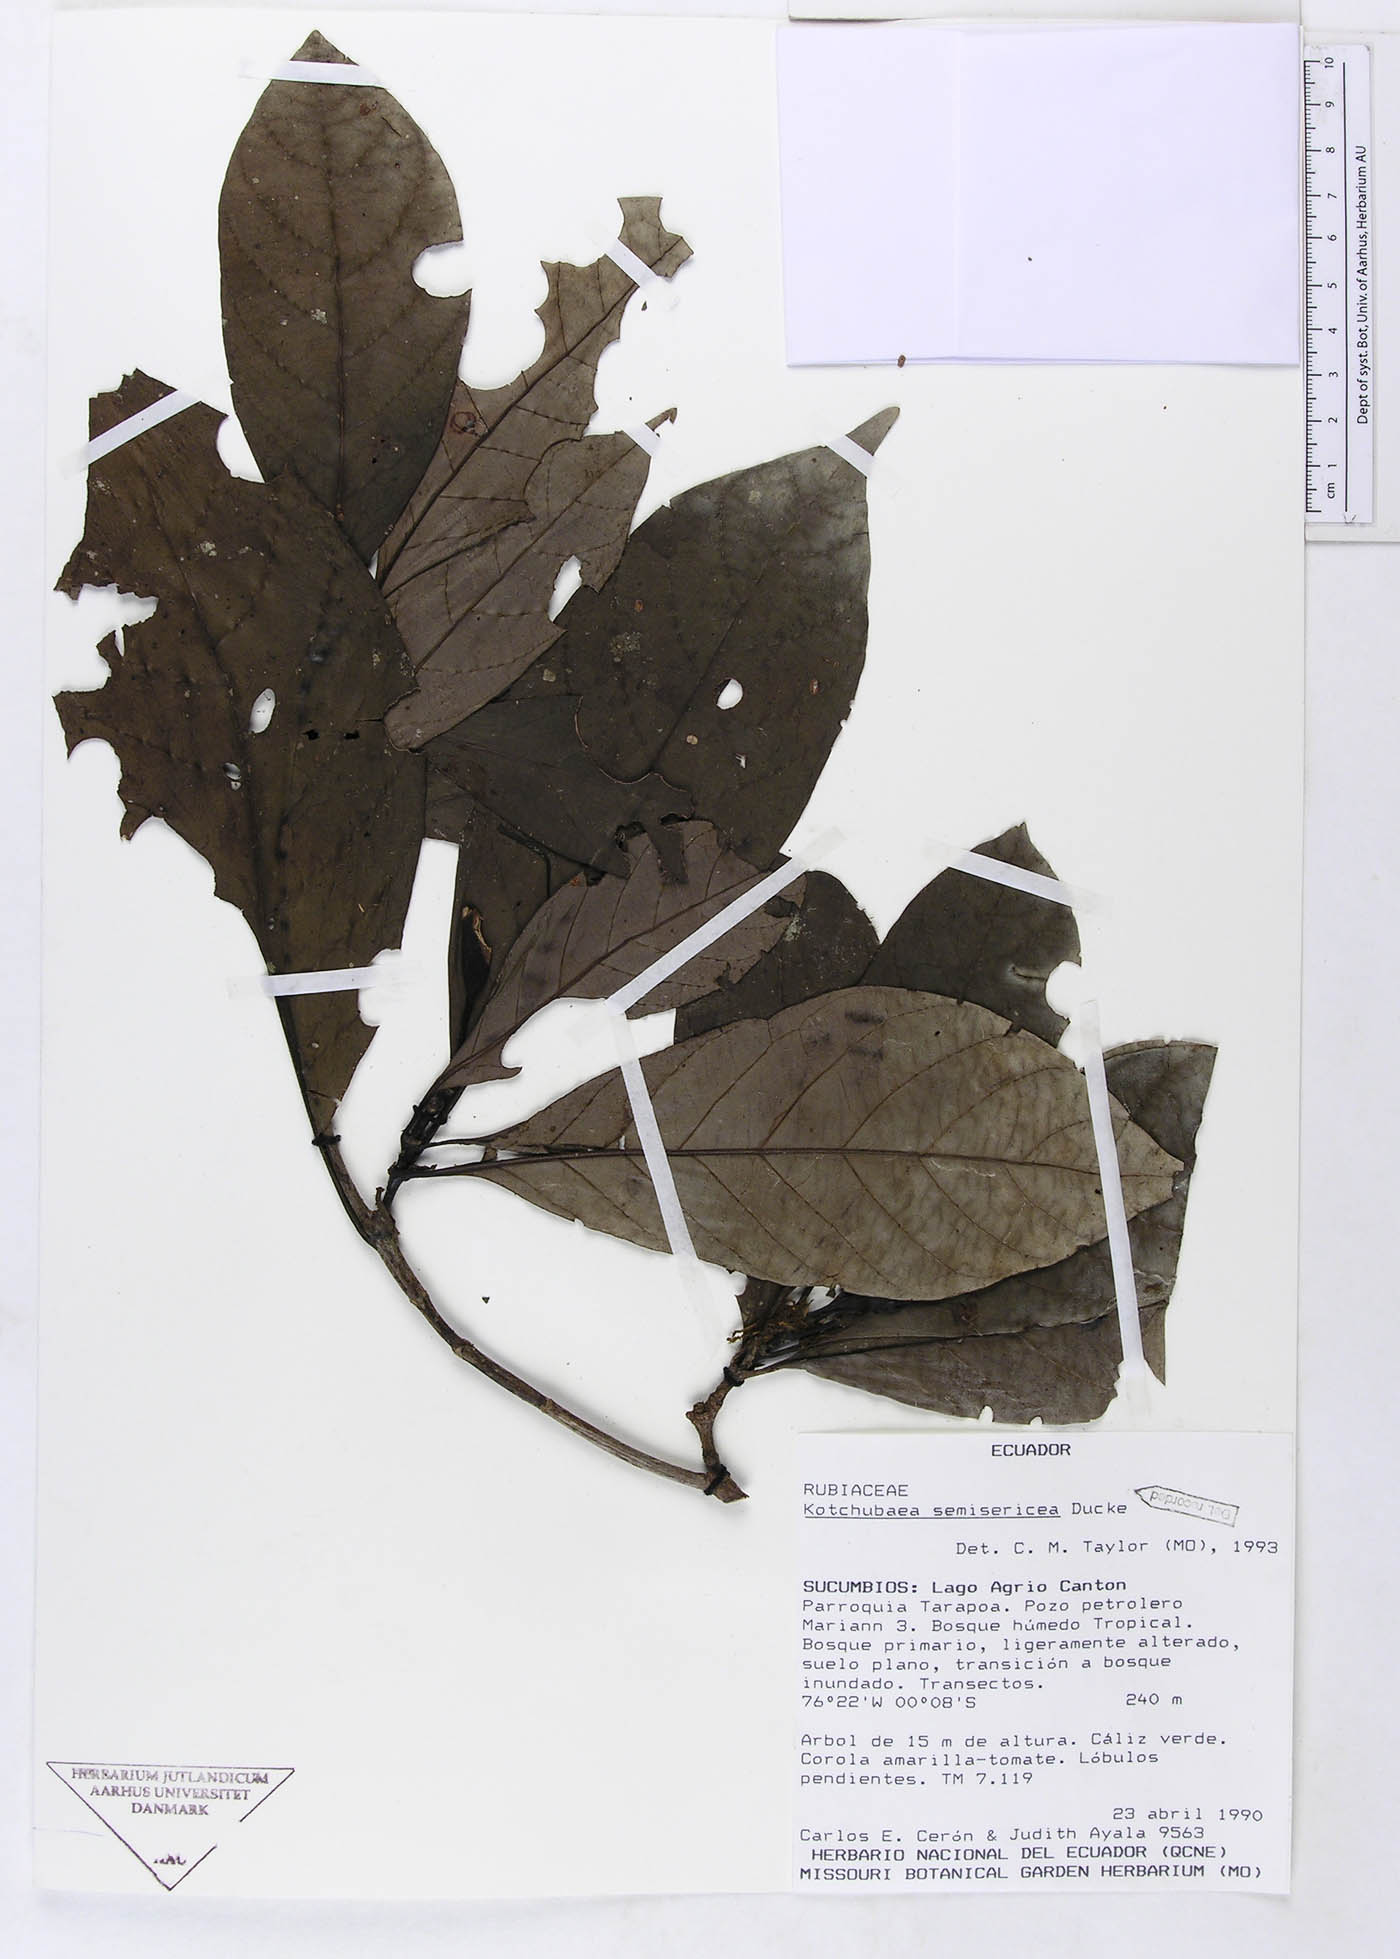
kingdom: Plantae
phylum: Tracheophyta
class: Magnoliopsida
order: Gentianales
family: Rubiaceae
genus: Kutchubaea
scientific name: Kutchubaea semisericea
